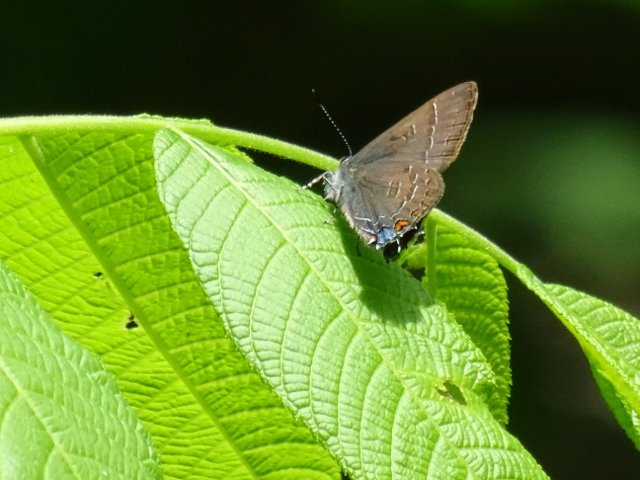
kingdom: Animalia
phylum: Arthropoda
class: Insecta
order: Lepidoptera
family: Lycaenidae
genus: Satyrium
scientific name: Satyrium calanus
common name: Banded Hairstreak
